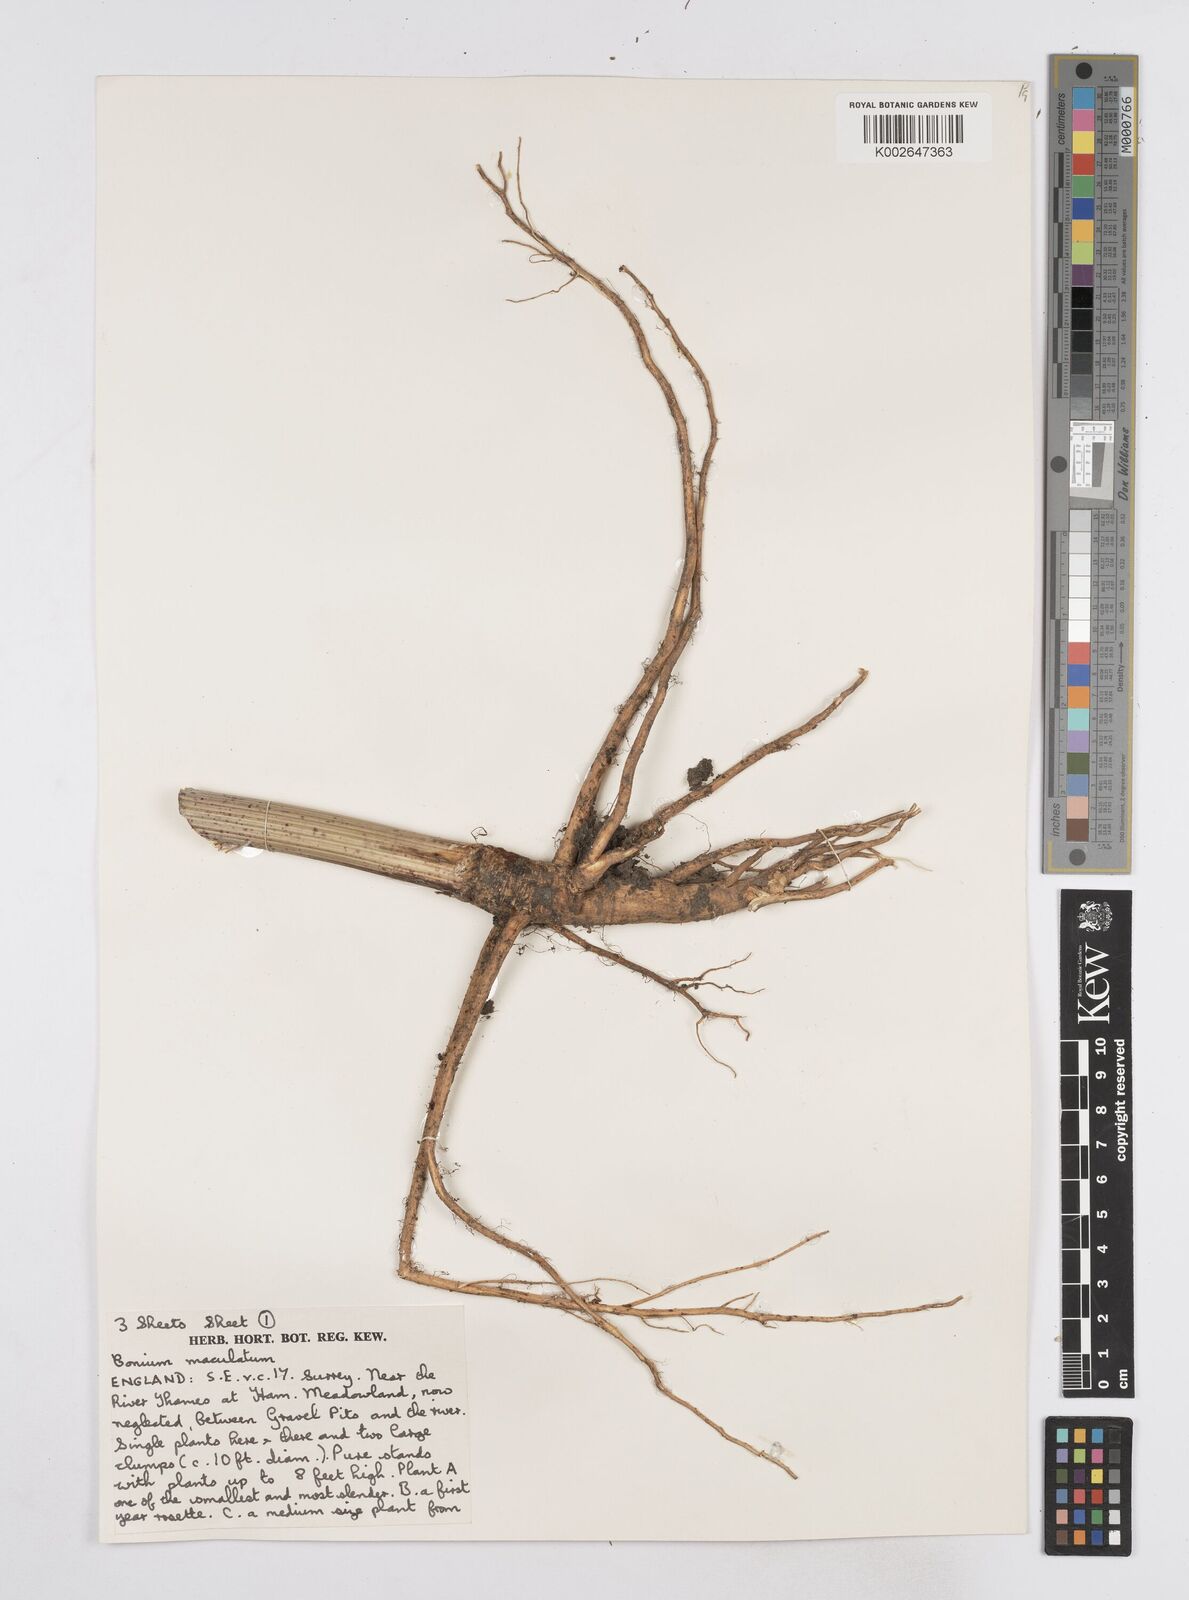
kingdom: Plantae
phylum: Tracheophyta
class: Magnoliopsida
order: Apiales
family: Apiaceae
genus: Conium
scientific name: Conium maculatum
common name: Hemlock
